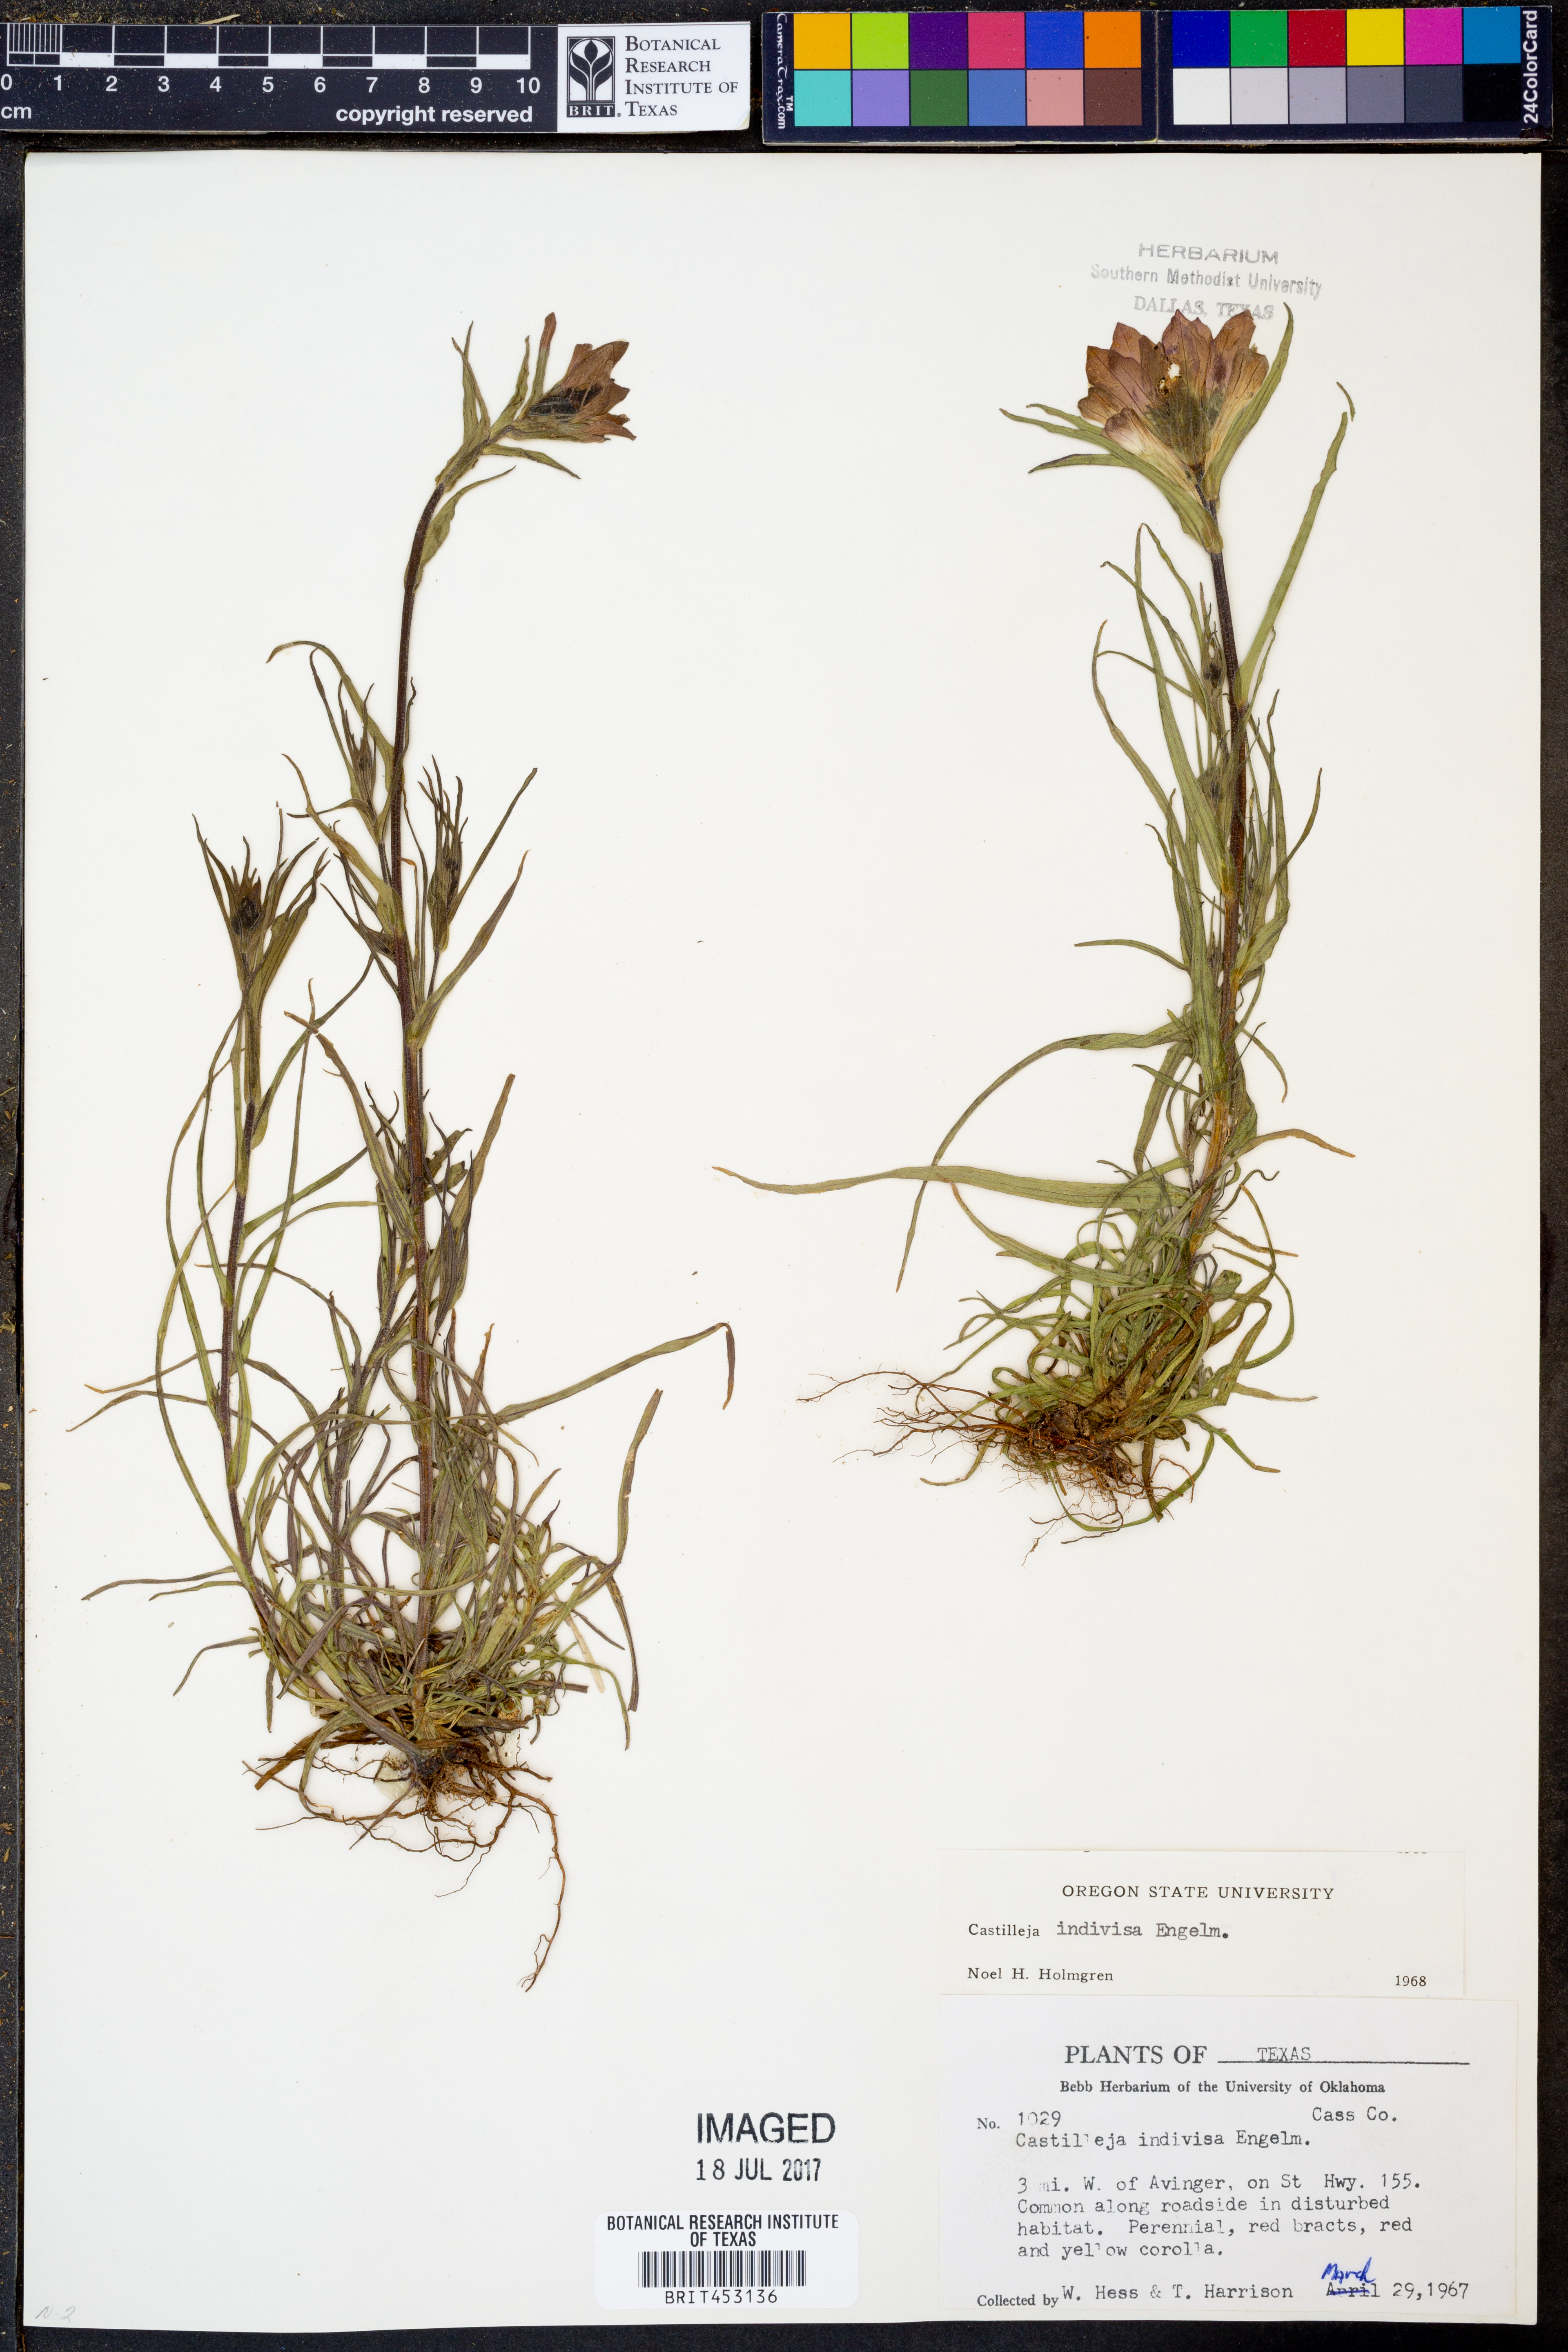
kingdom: Plantae
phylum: Tracheophyta
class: Magnoliopsida
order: Lamiales
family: Orobanchaceae
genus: Castilleja
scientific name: Castilleja indivisa
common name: Texas paintbrush
